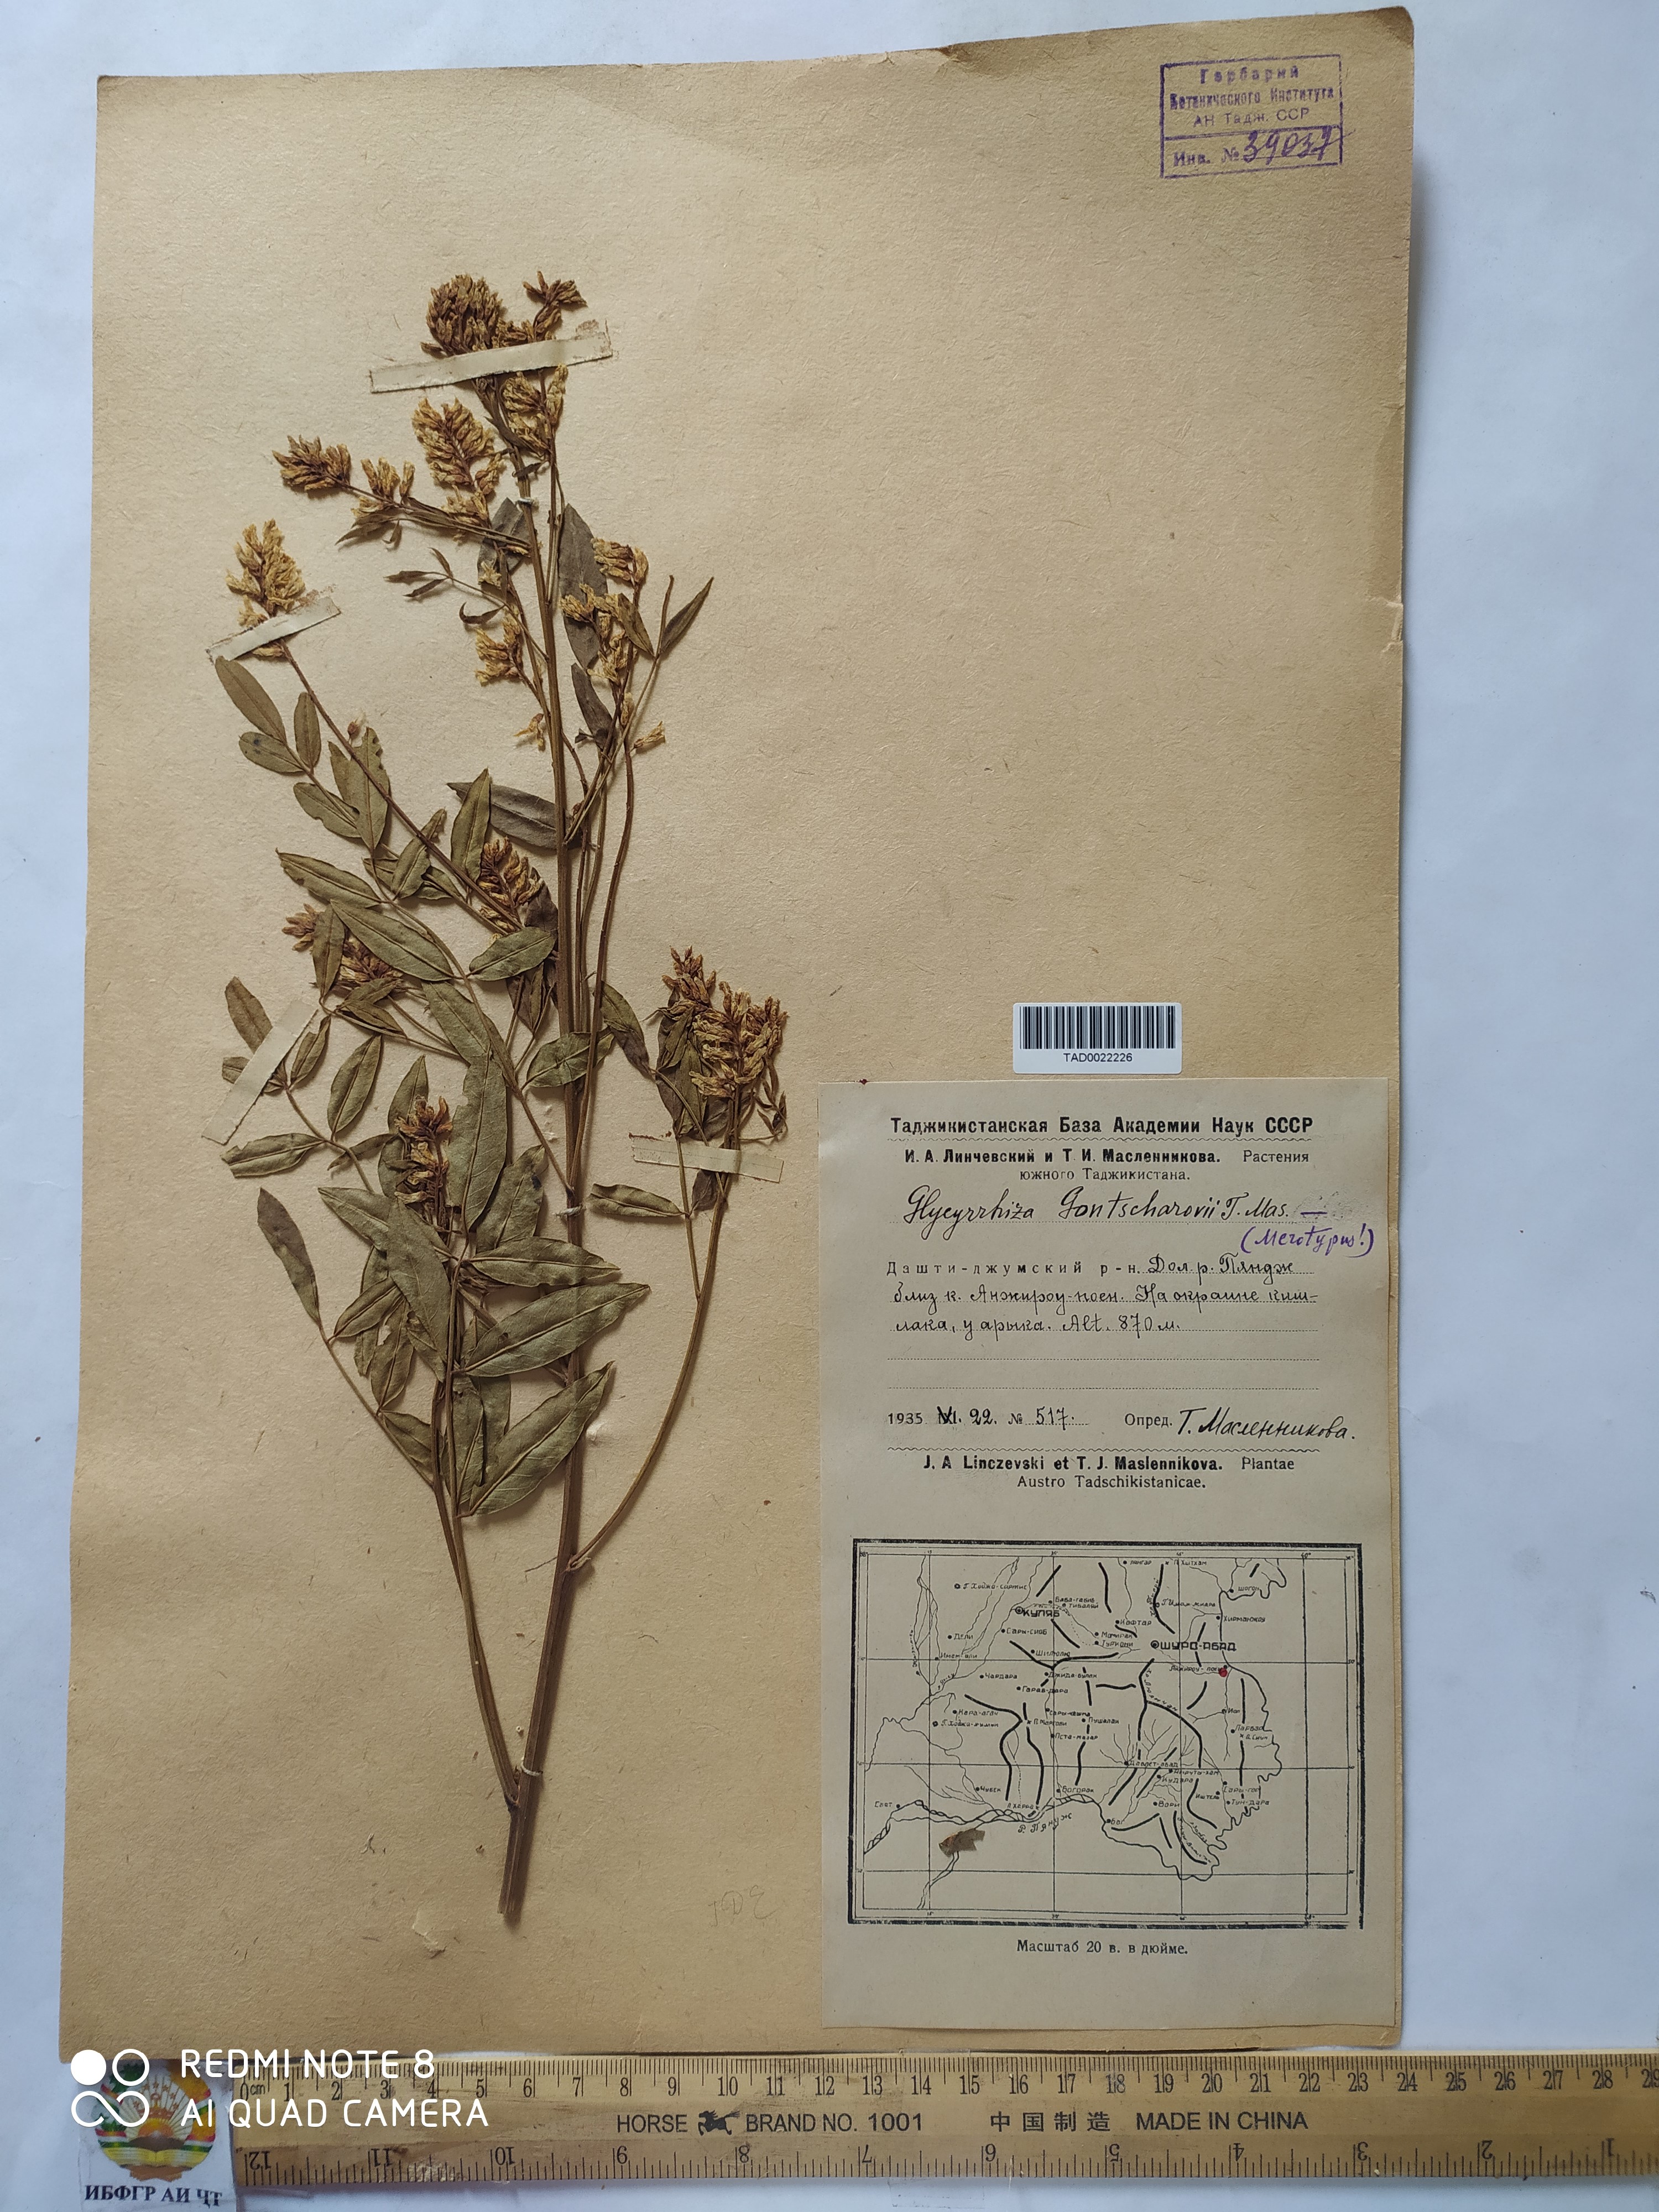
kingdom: Plantae
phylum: Tracheophyta
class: Magnoliopsida
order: Fabales
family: Fabaceae
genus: Glycyrrhiza
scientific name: Glycyrrhiza gontscharovii
